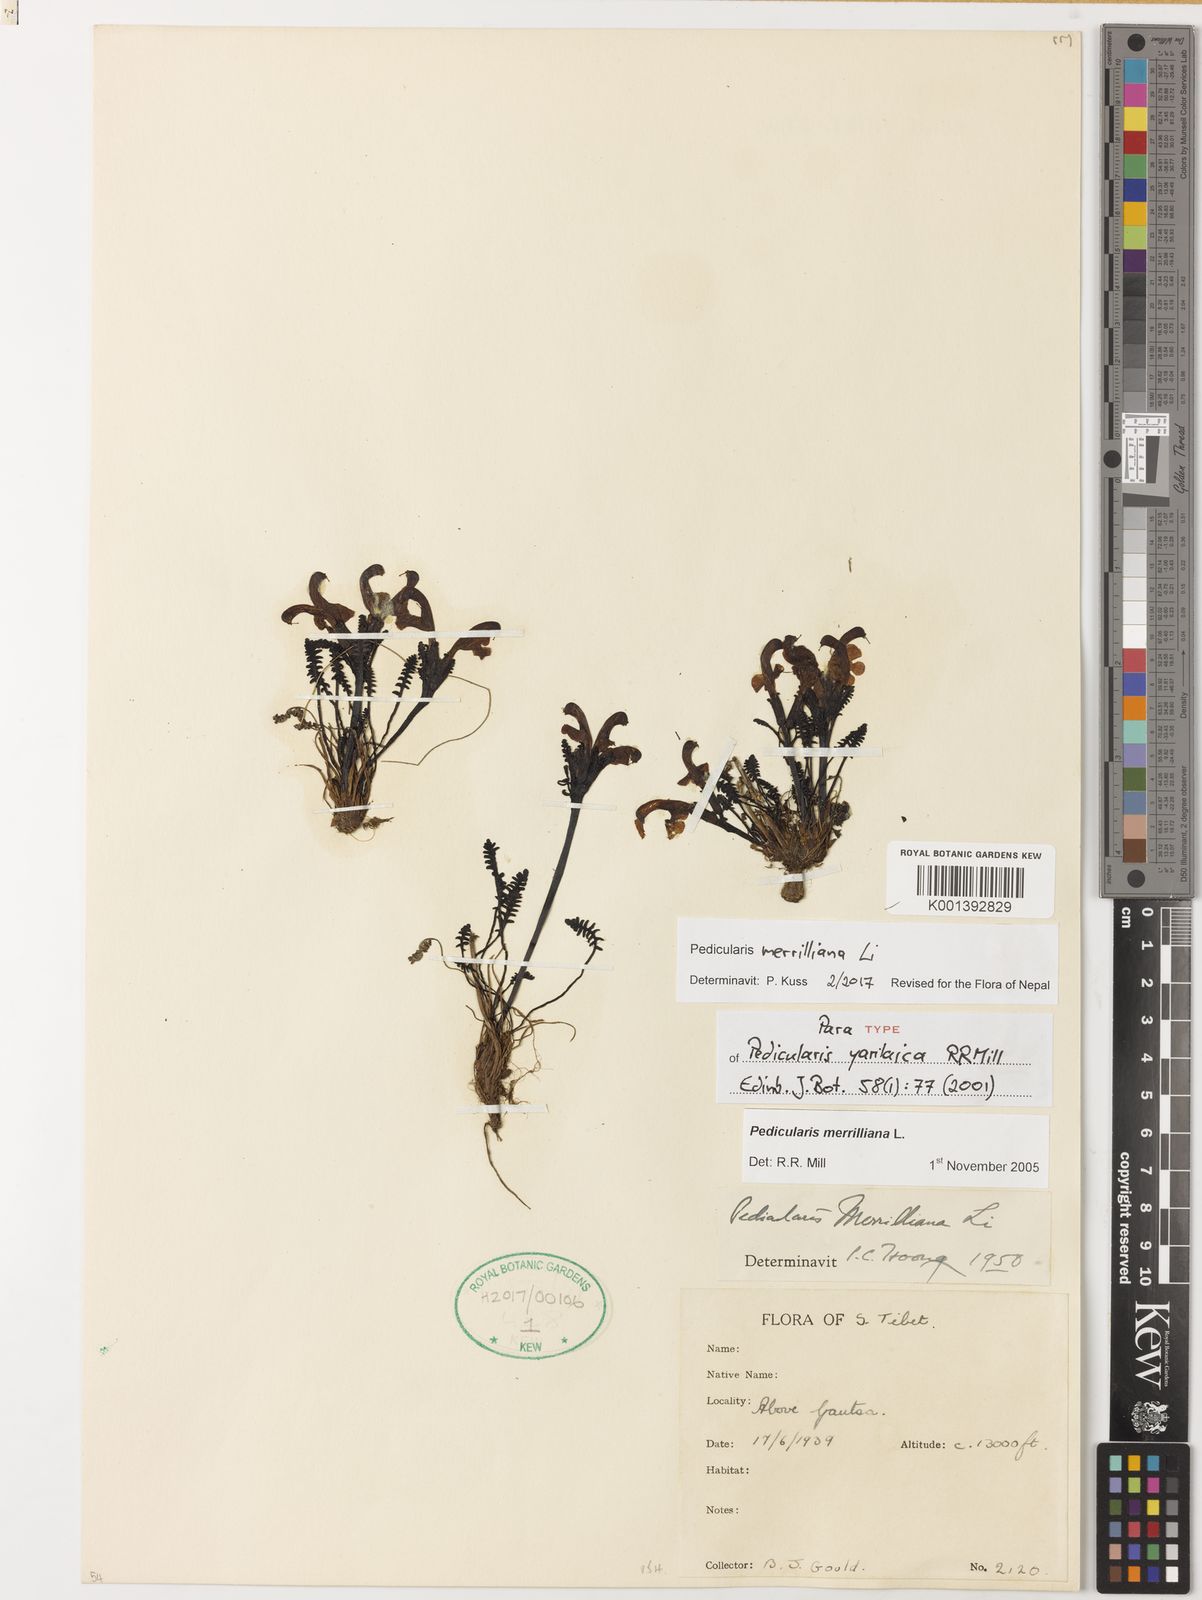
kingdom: Plantae
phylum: Tracheophyta
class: Magnoliopsida
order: Lamiales
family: Orobanchaceae
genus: Pedicularis
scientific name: Pedicularis merrilliana
